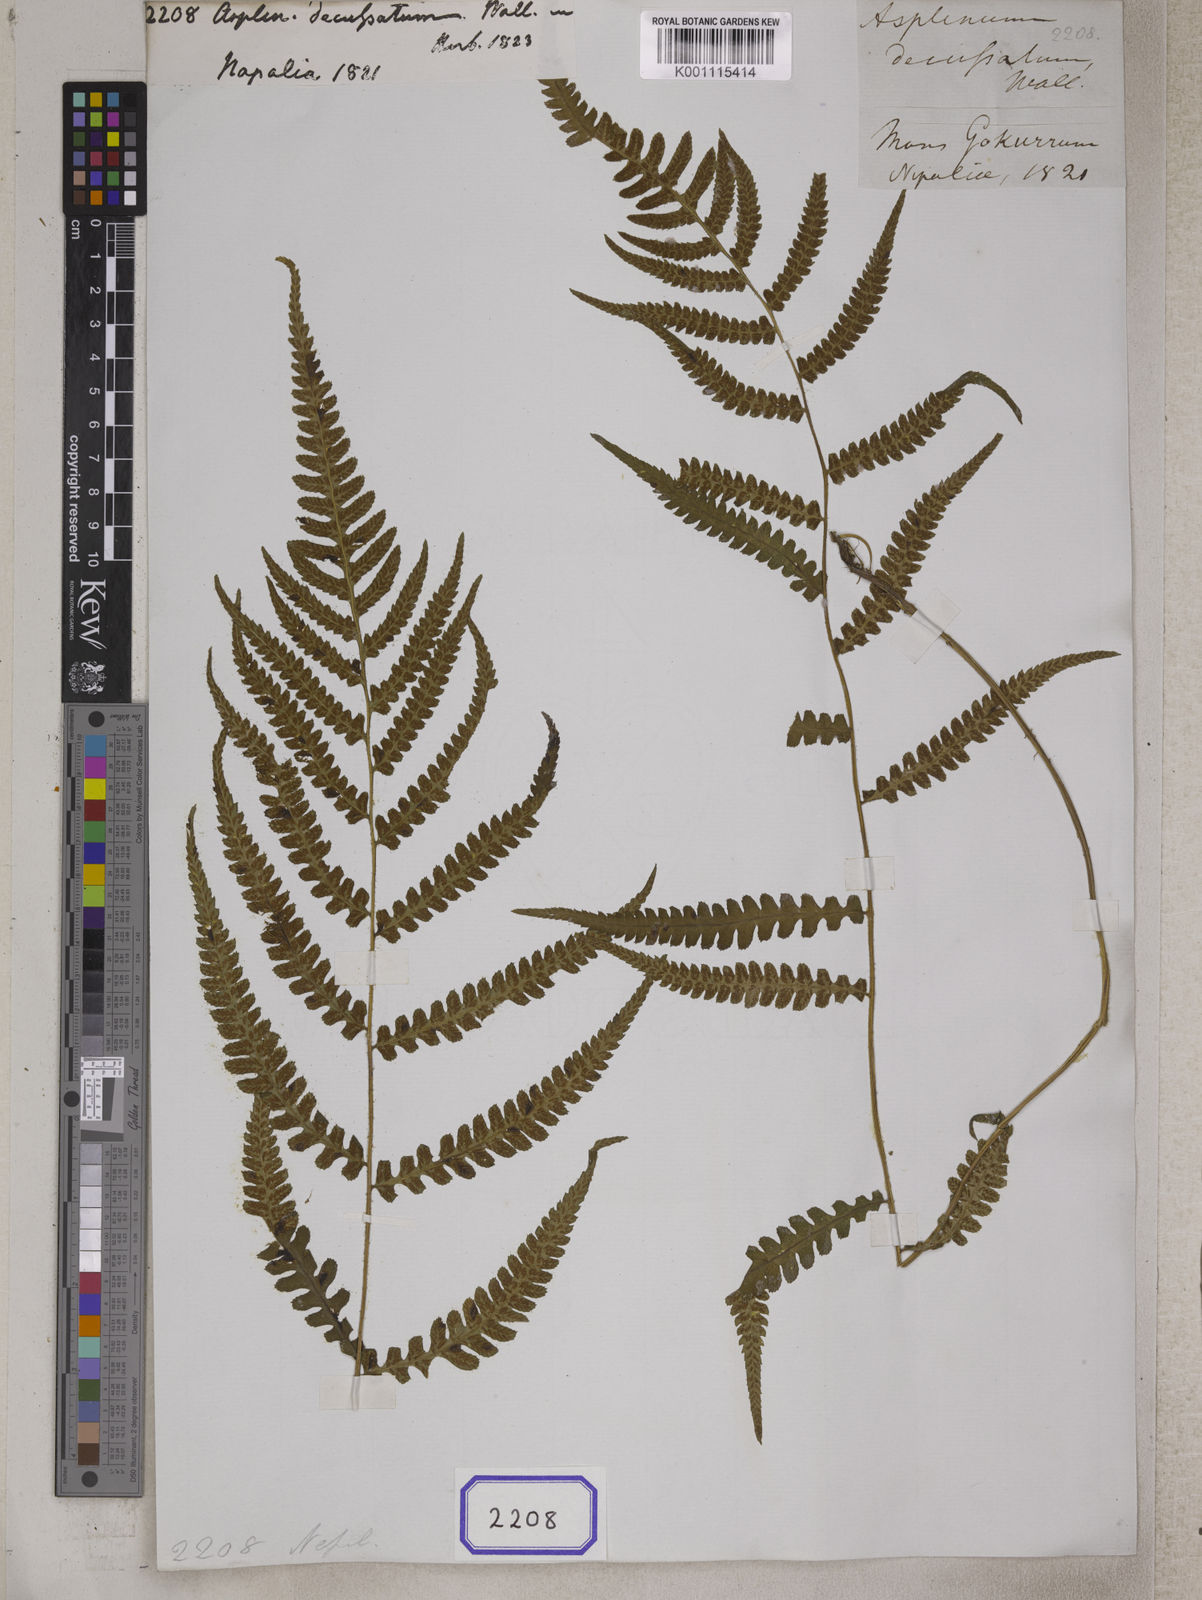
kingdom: Plantae
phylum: Tracheophyta
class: Polypodiopsida
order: Polypodiales
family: Athyriaceae
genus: Deparia
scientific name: Deparia japonica
